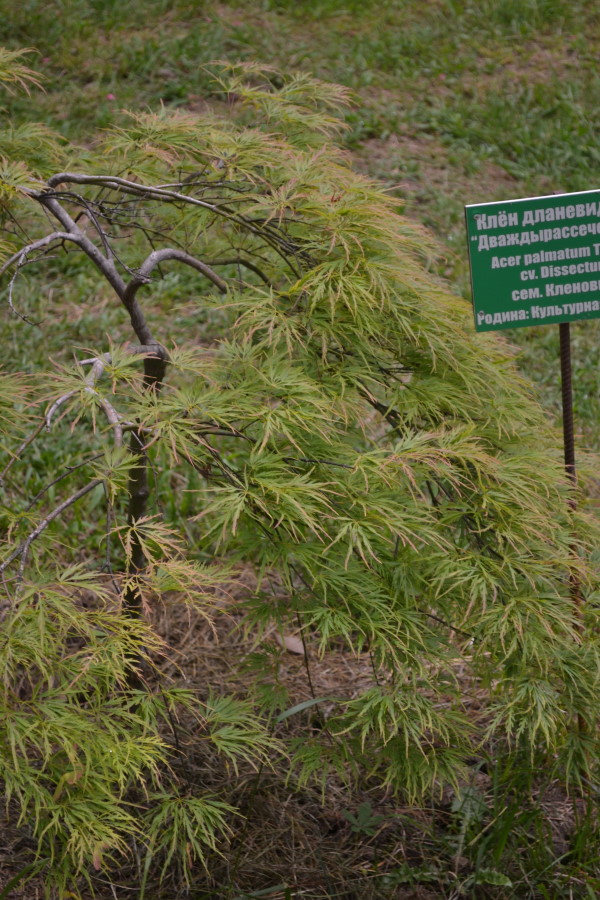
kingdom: Plantae
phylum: Tracheophyta
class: Magnoliopsida
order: Sapindales
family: Sapindaceae
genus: Acer
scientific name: Acer
